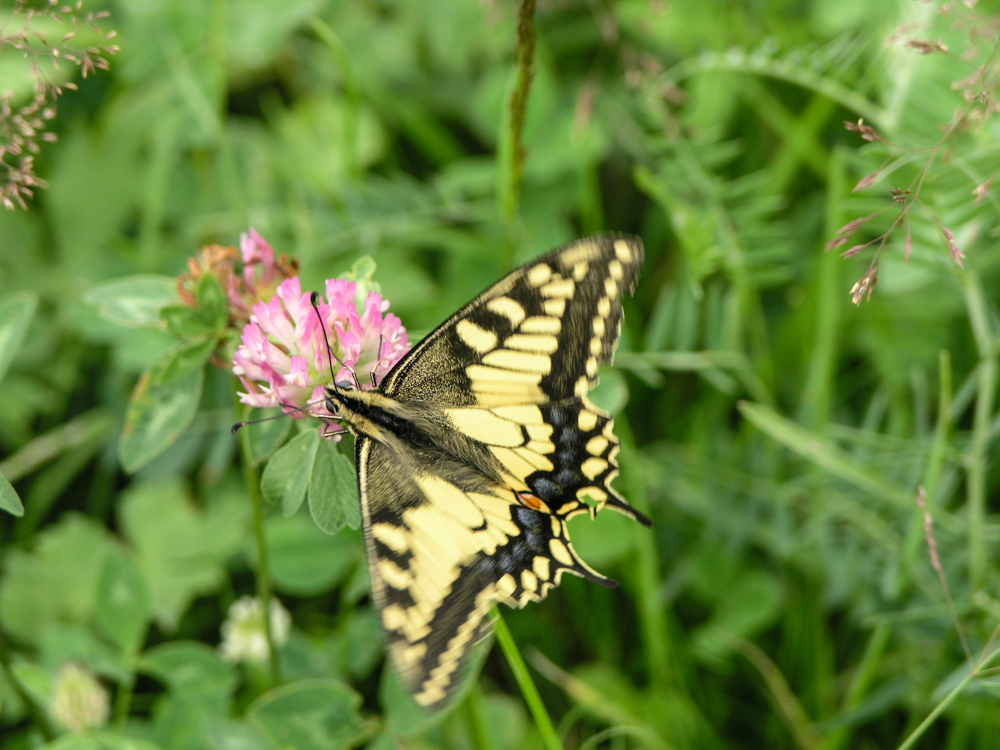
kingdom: Animalia
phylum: Arthropoda
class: Insecta
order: Lepidoptera
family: Papilionidae
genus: Papilio
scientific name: Papilio machaon
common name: Swallowtail
